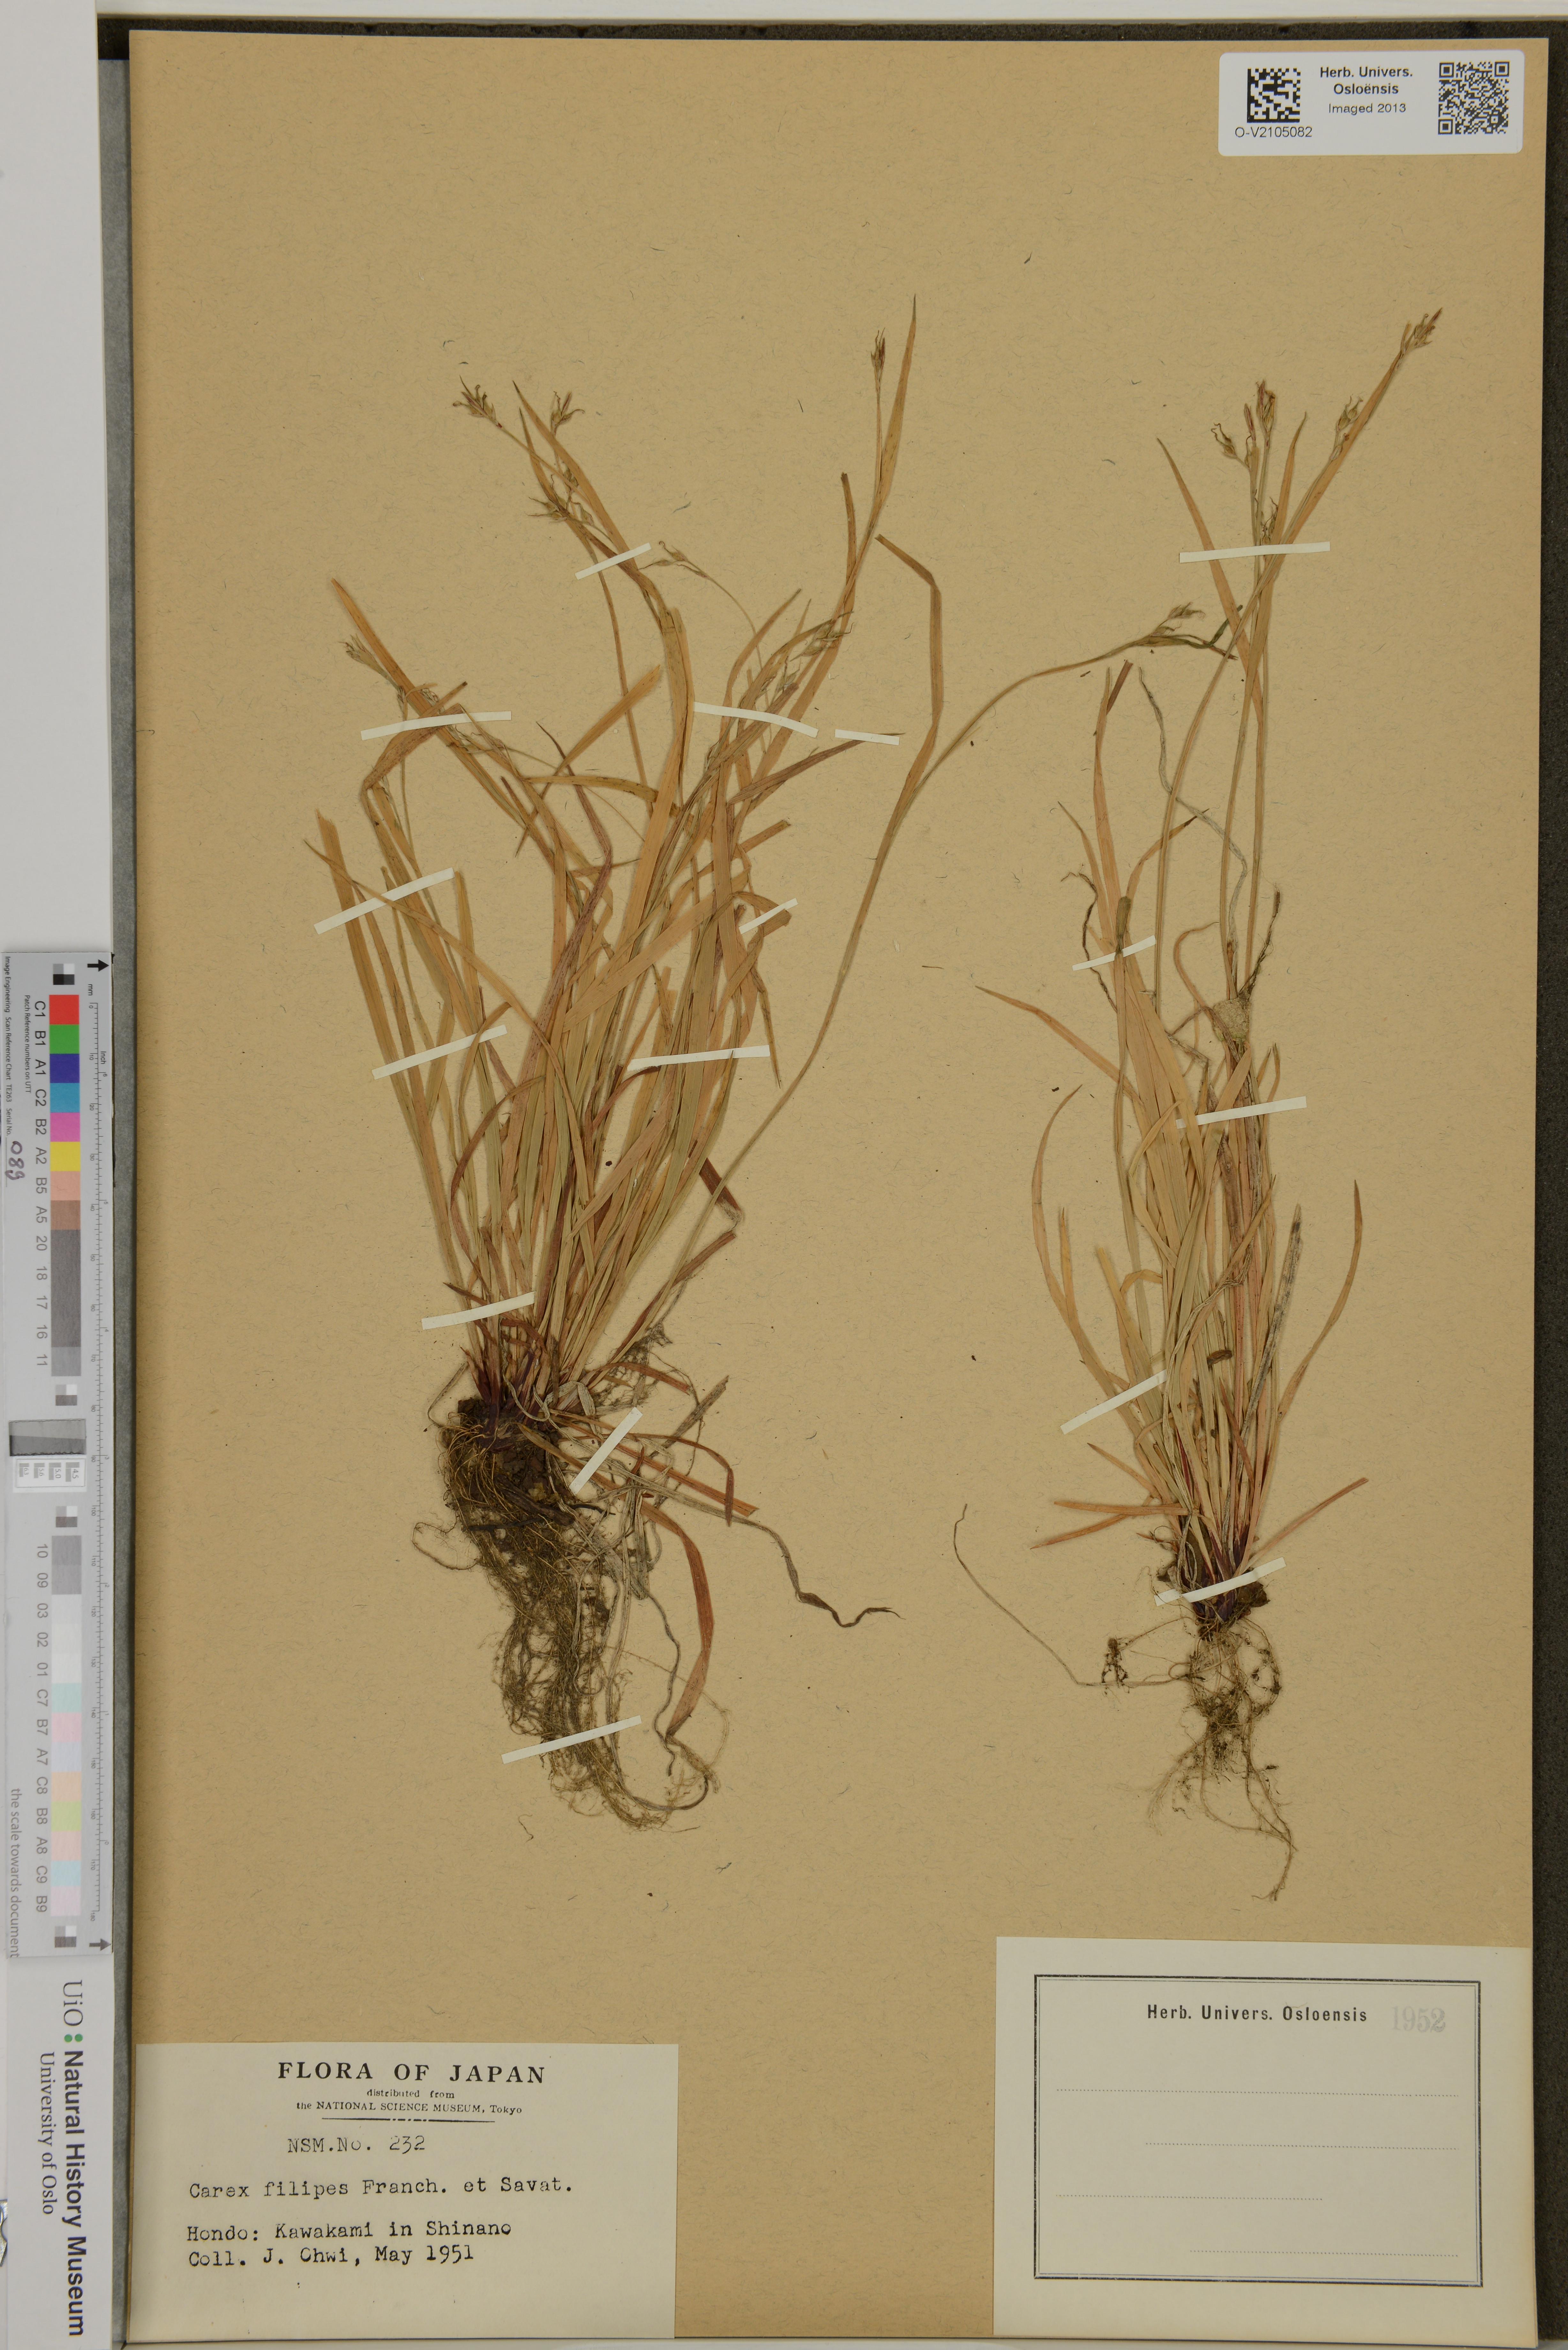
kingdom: Plantae
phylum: Tracheophyta
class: Liliopsida
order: Poales
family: Cyperaceae
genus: Carex
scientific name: Carex filipes
